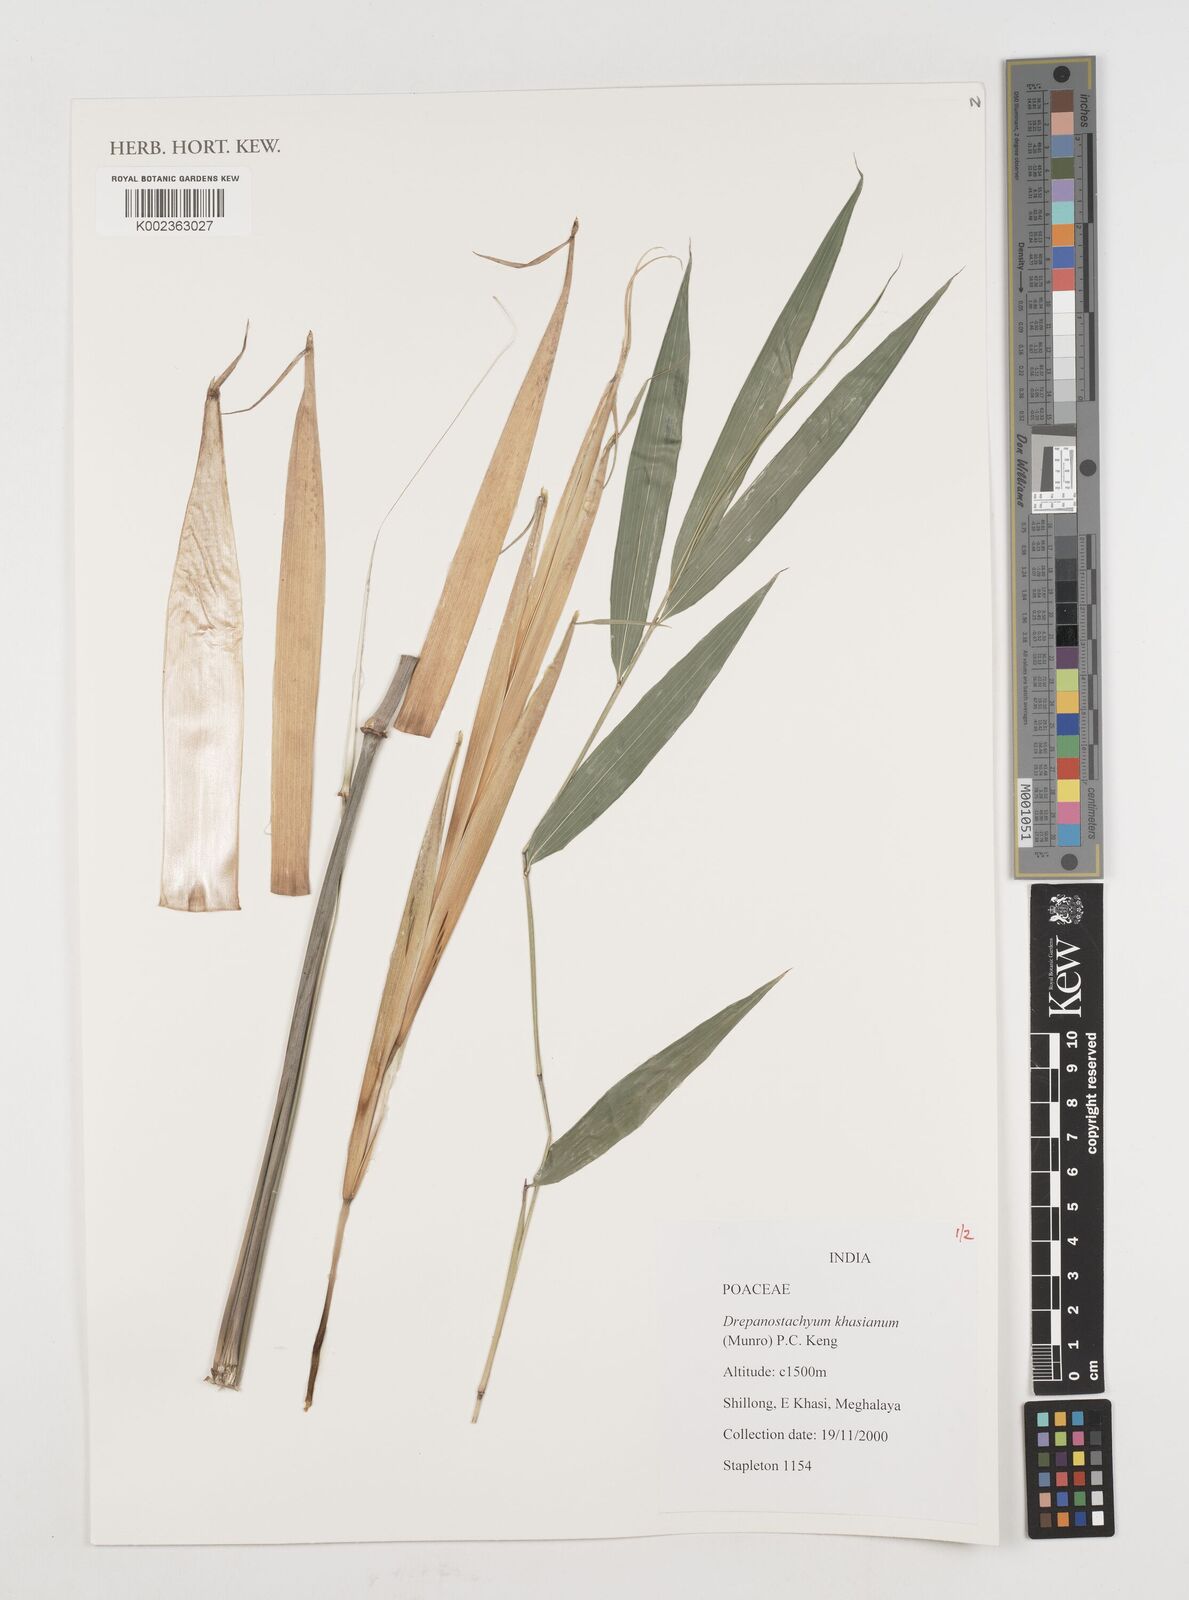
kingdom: Plantae
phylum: Tracheophyta
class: Liliopsida
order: Poales
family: Poaceae
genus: Drepanostachyum
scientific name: Drepanostachyum khasianum
